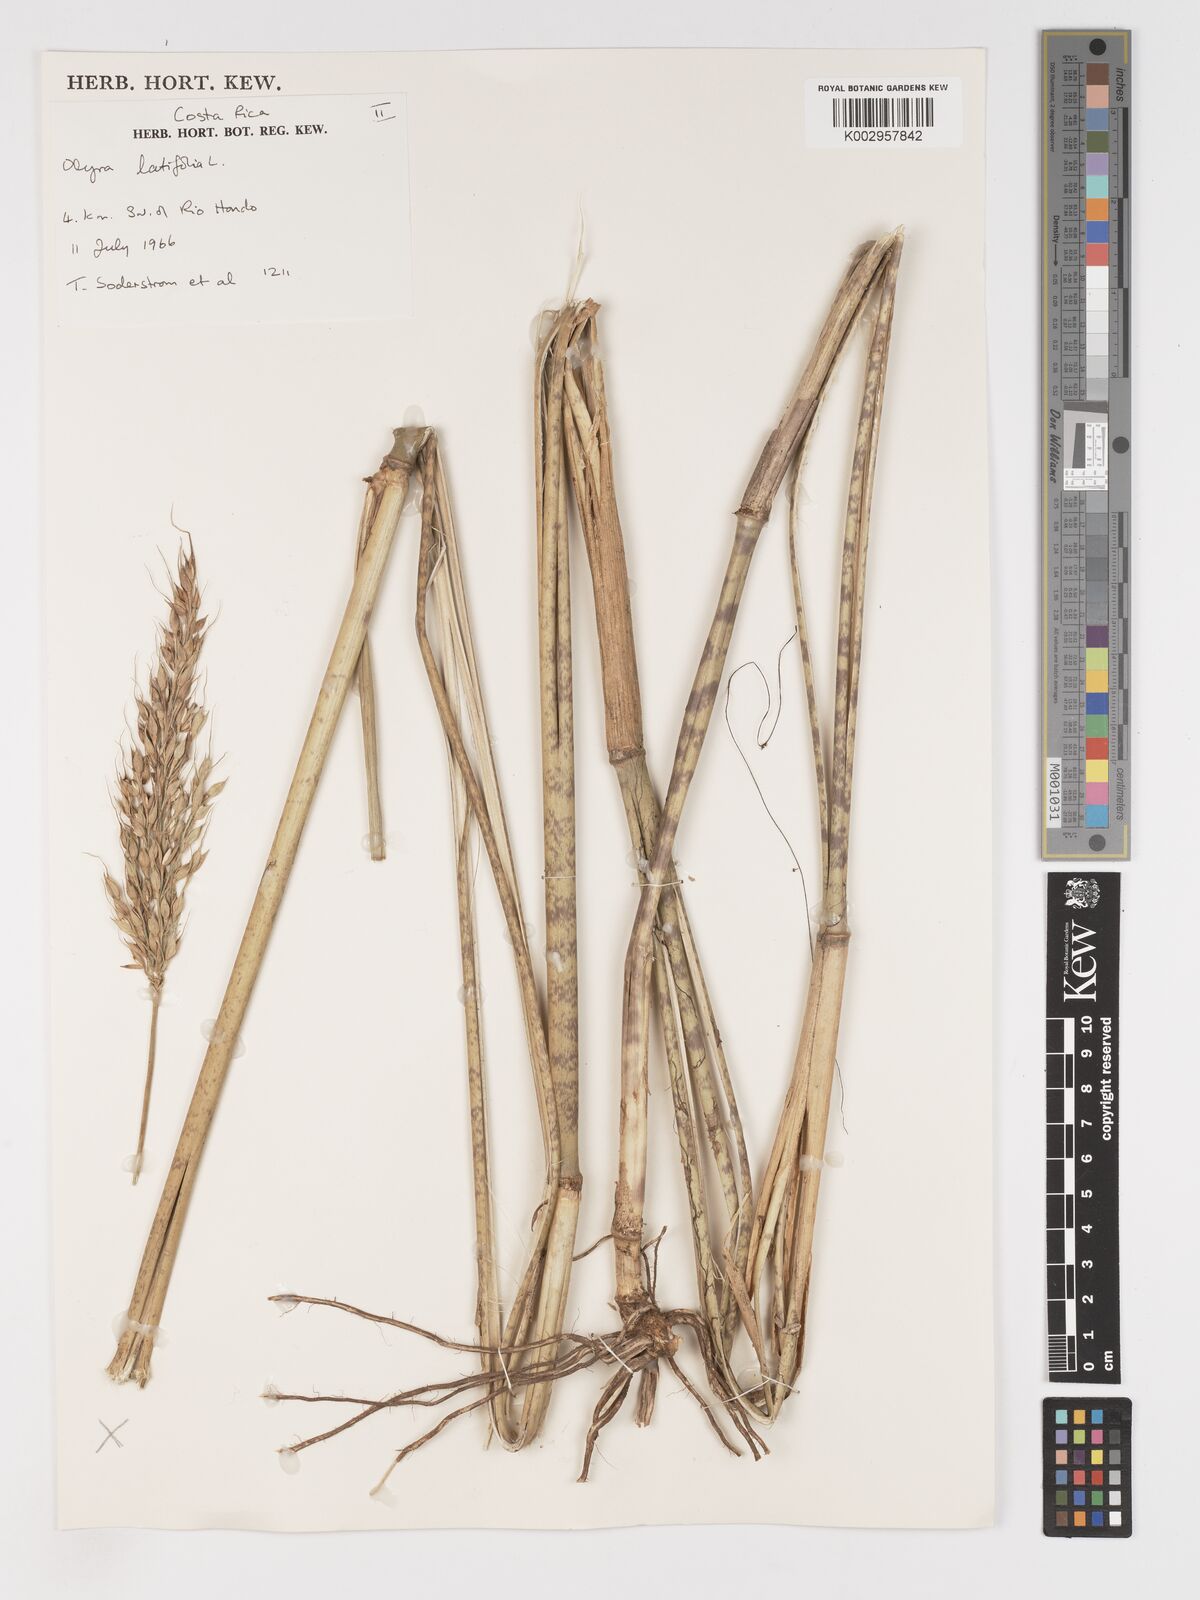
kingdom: Plantae
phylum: Tracheophyta
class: Liliopsida
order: Poales
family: Poaceae
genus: Olyra
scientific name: Olyra latifolia
